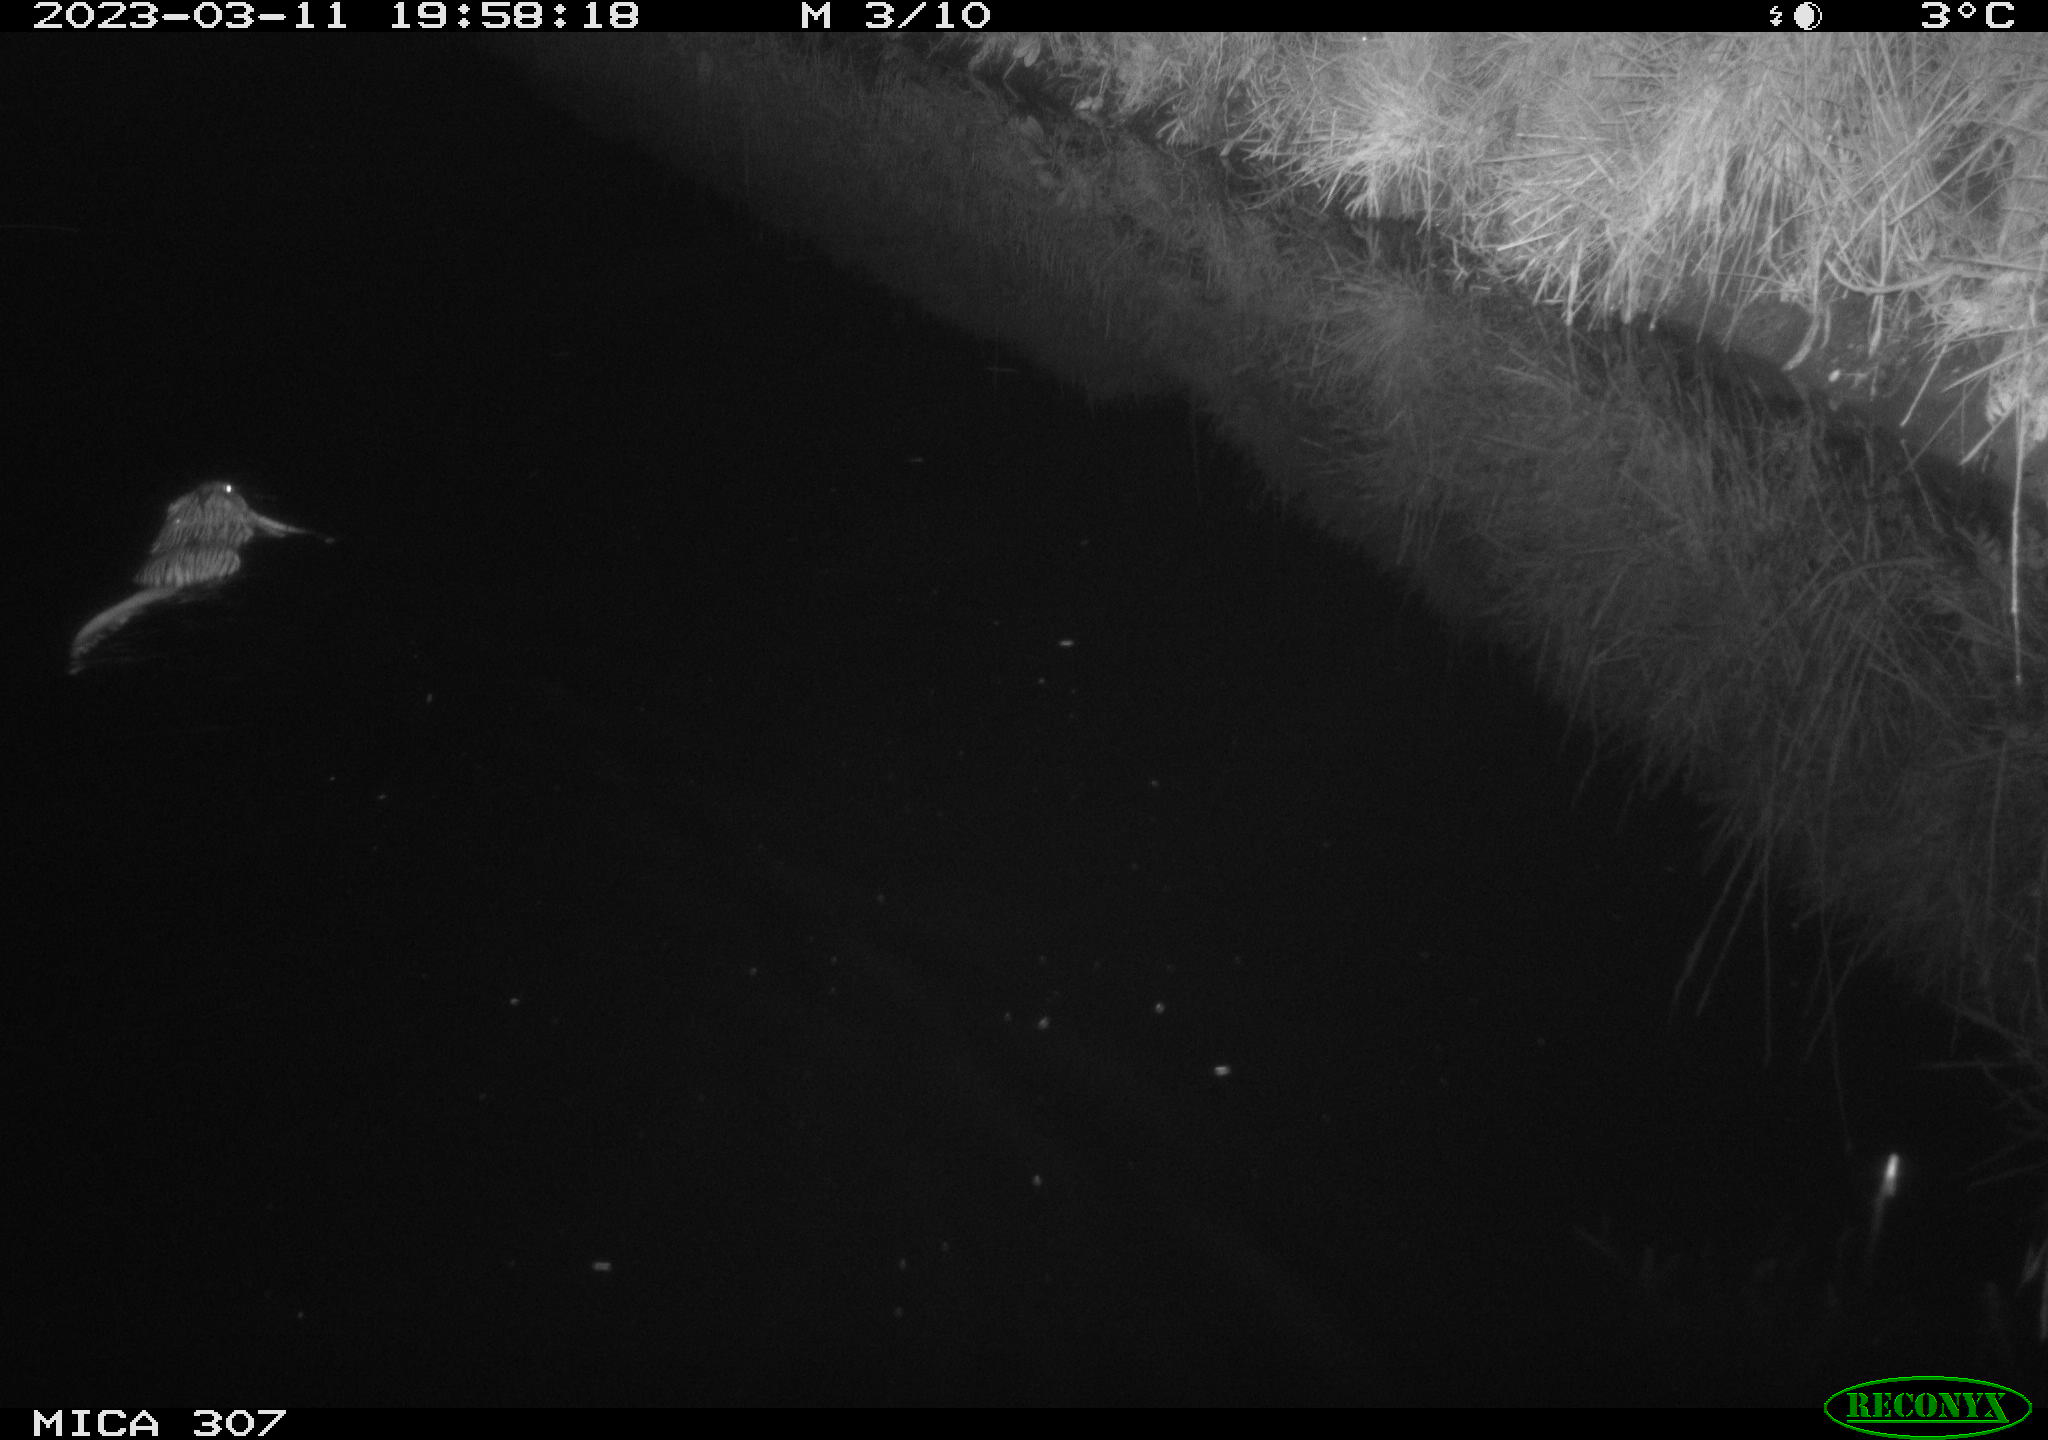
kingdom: Animalia
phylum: Chordata
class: Mammalia
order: Rodentia
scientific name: Rodentia
